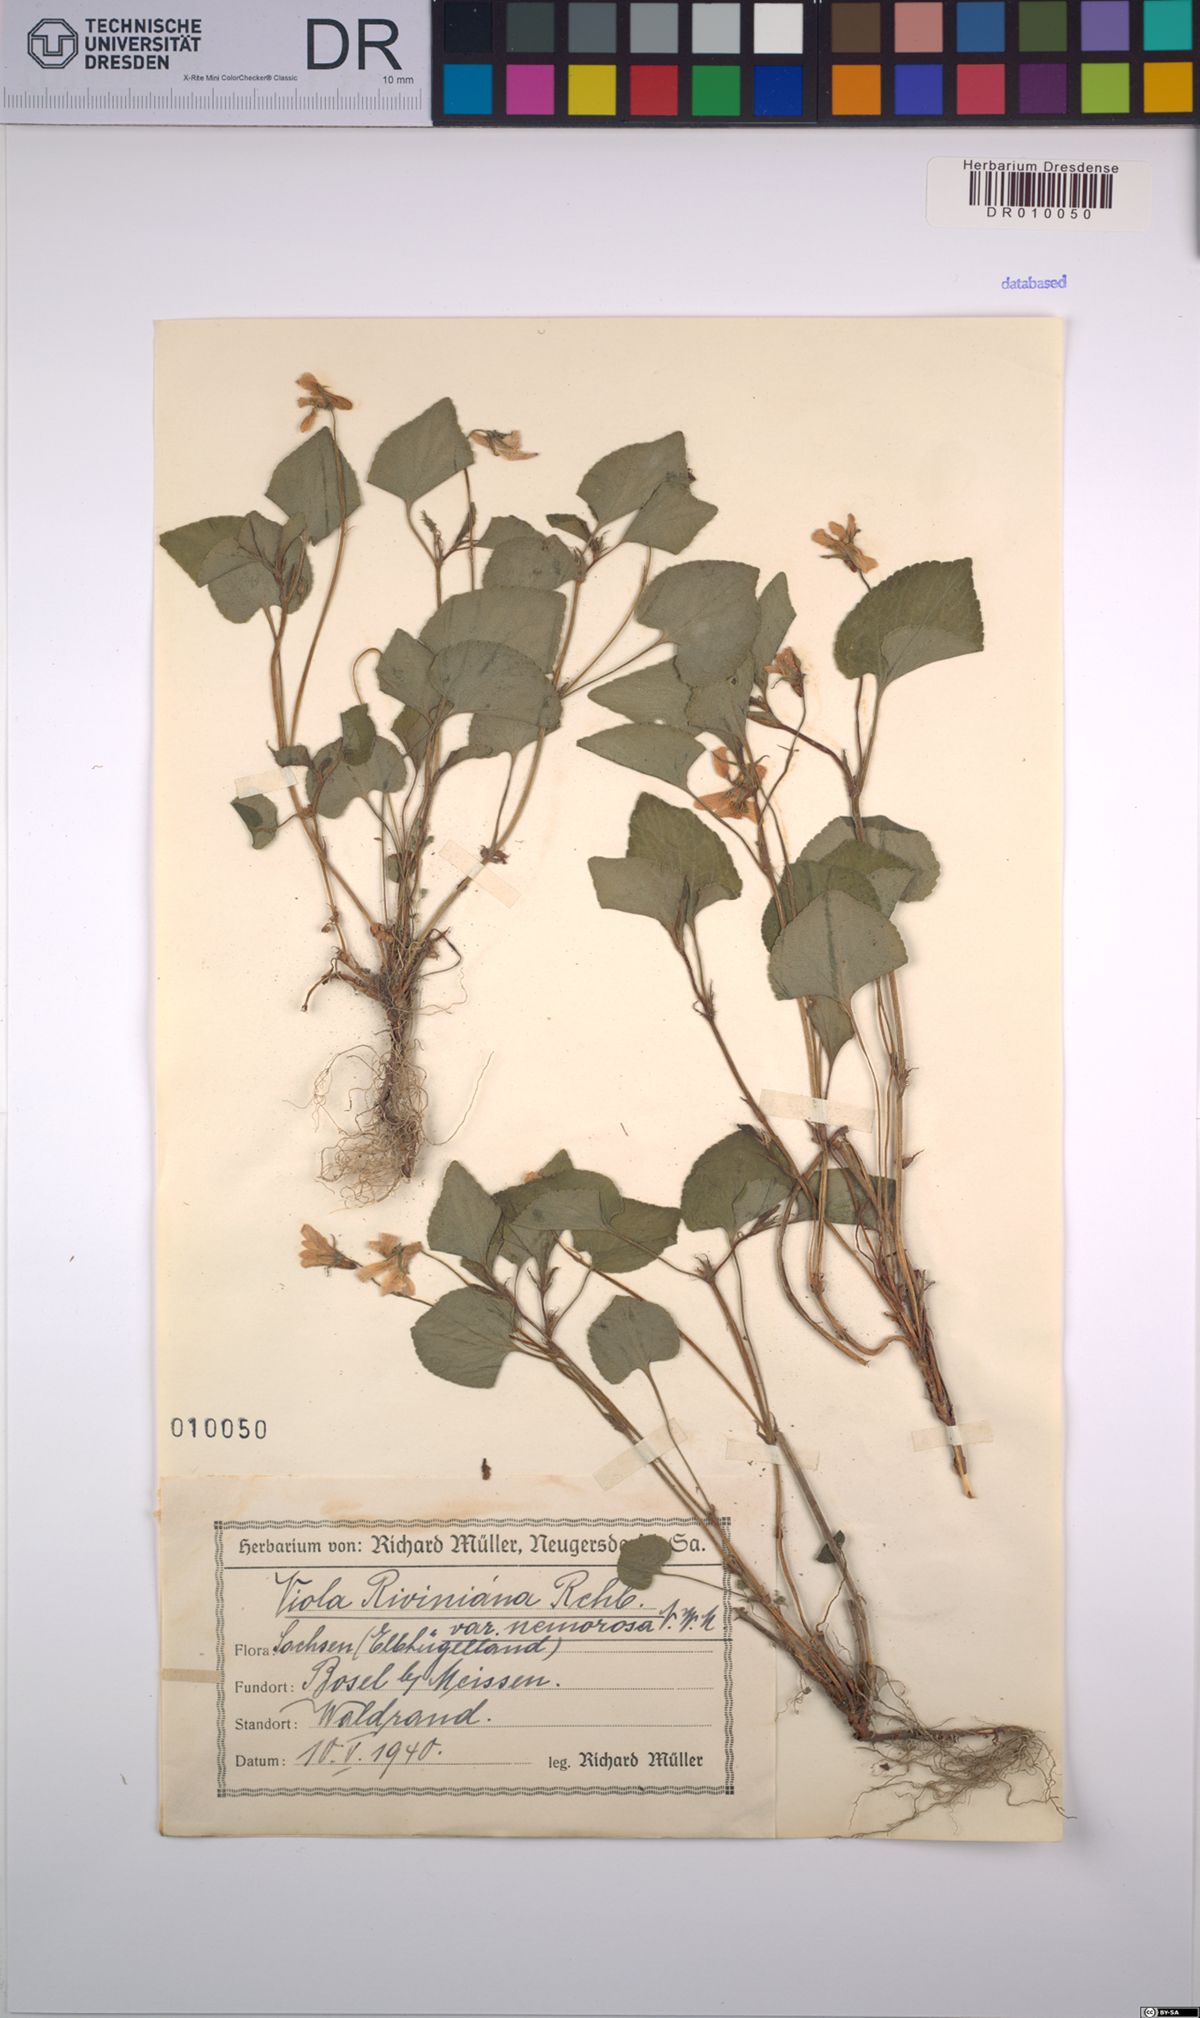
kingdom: Plantae
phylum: Tracheophyta
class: Magnoliopsida
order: Malpighiales
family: Violaceae
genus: Viola
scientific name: Viola riviniana
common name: Common dog-violet
